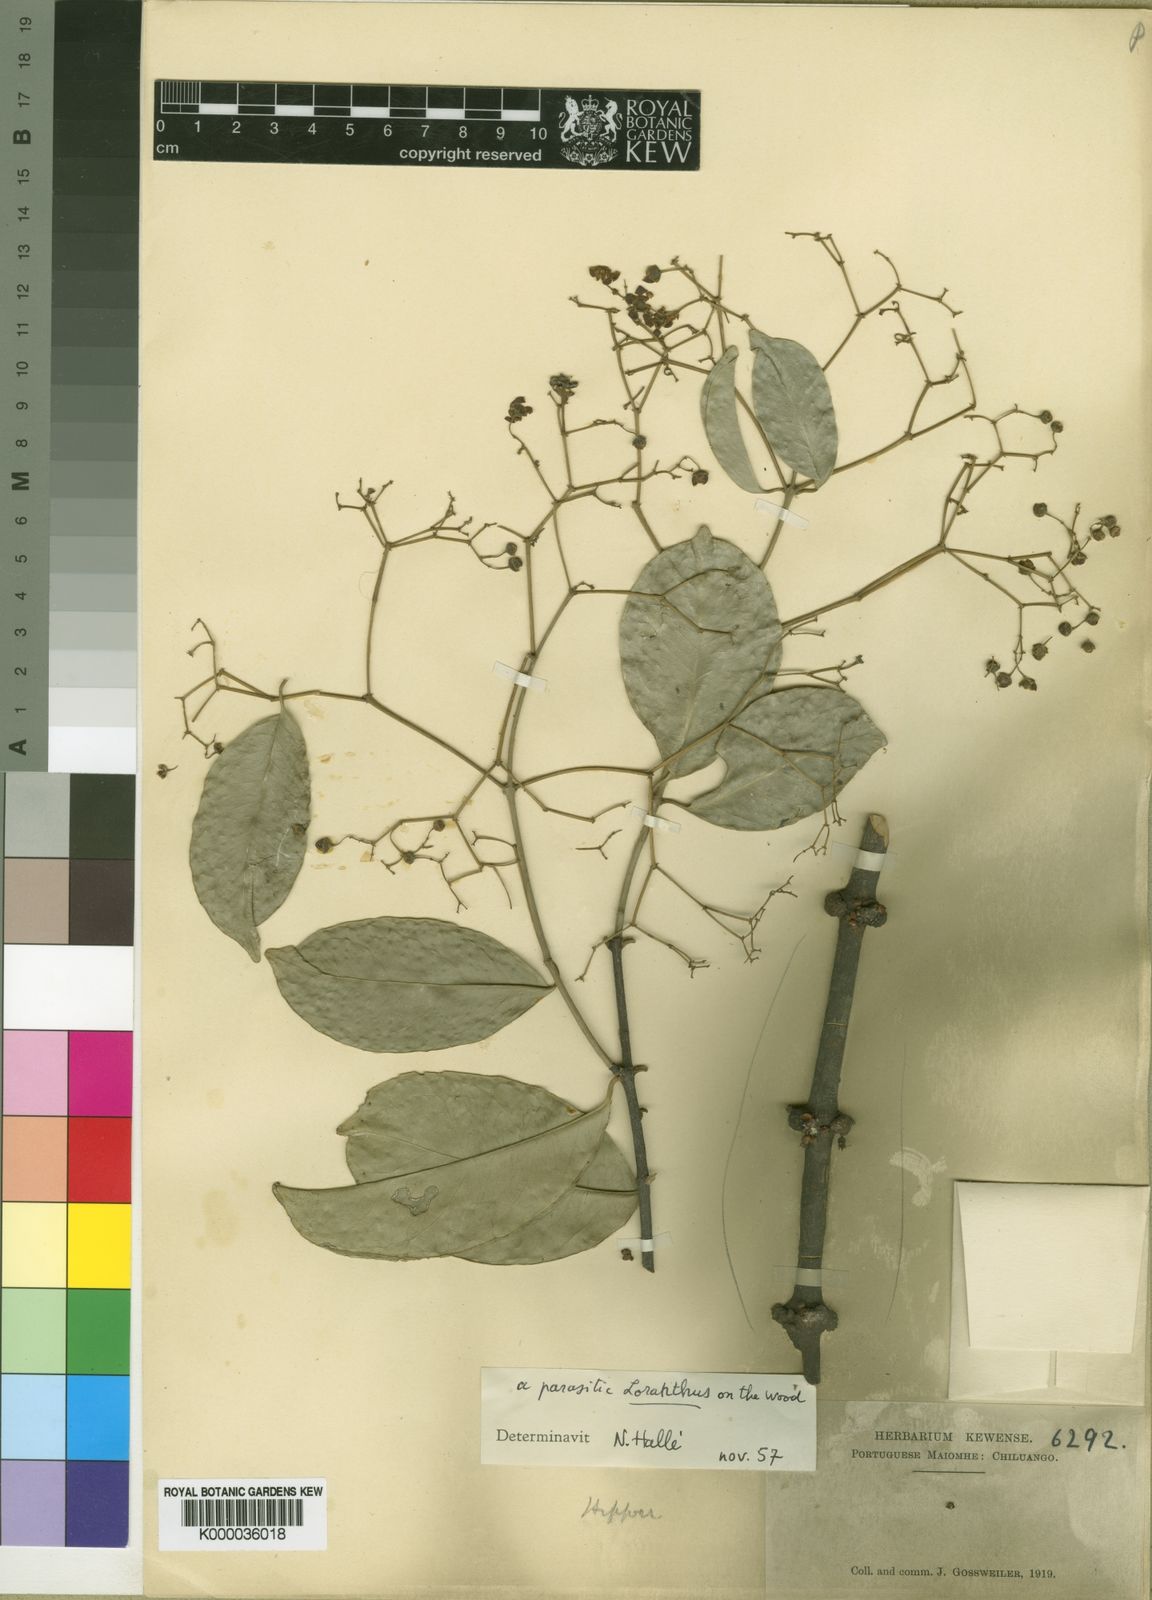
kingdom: Plantae
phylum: Tracheophyta
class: Magnoliopsida
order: Celastrales
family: Celastraceae
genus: Prionostemma
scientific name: Prionostemma
